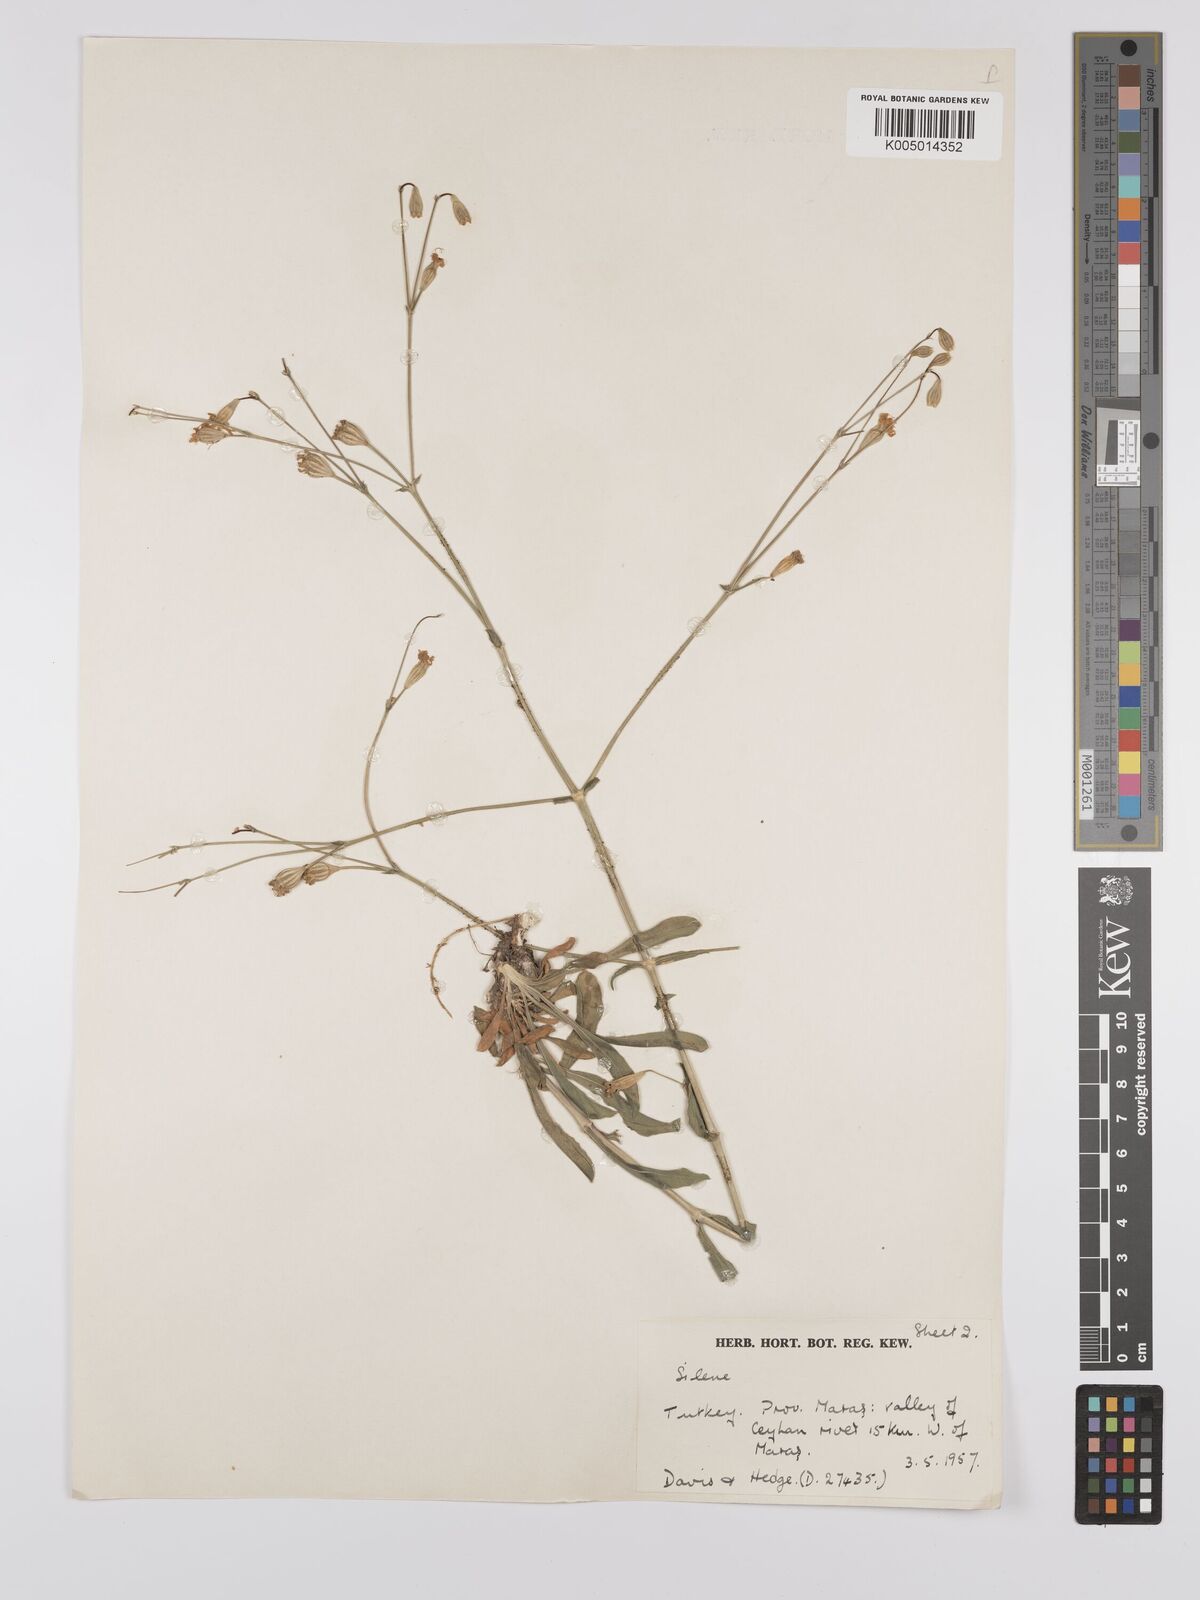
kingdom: Plantae
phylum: Tracheophyta
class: Magnoliopsida
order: Caryophyllales
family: Caryophyllaceae
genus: Silene
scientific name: Silene
